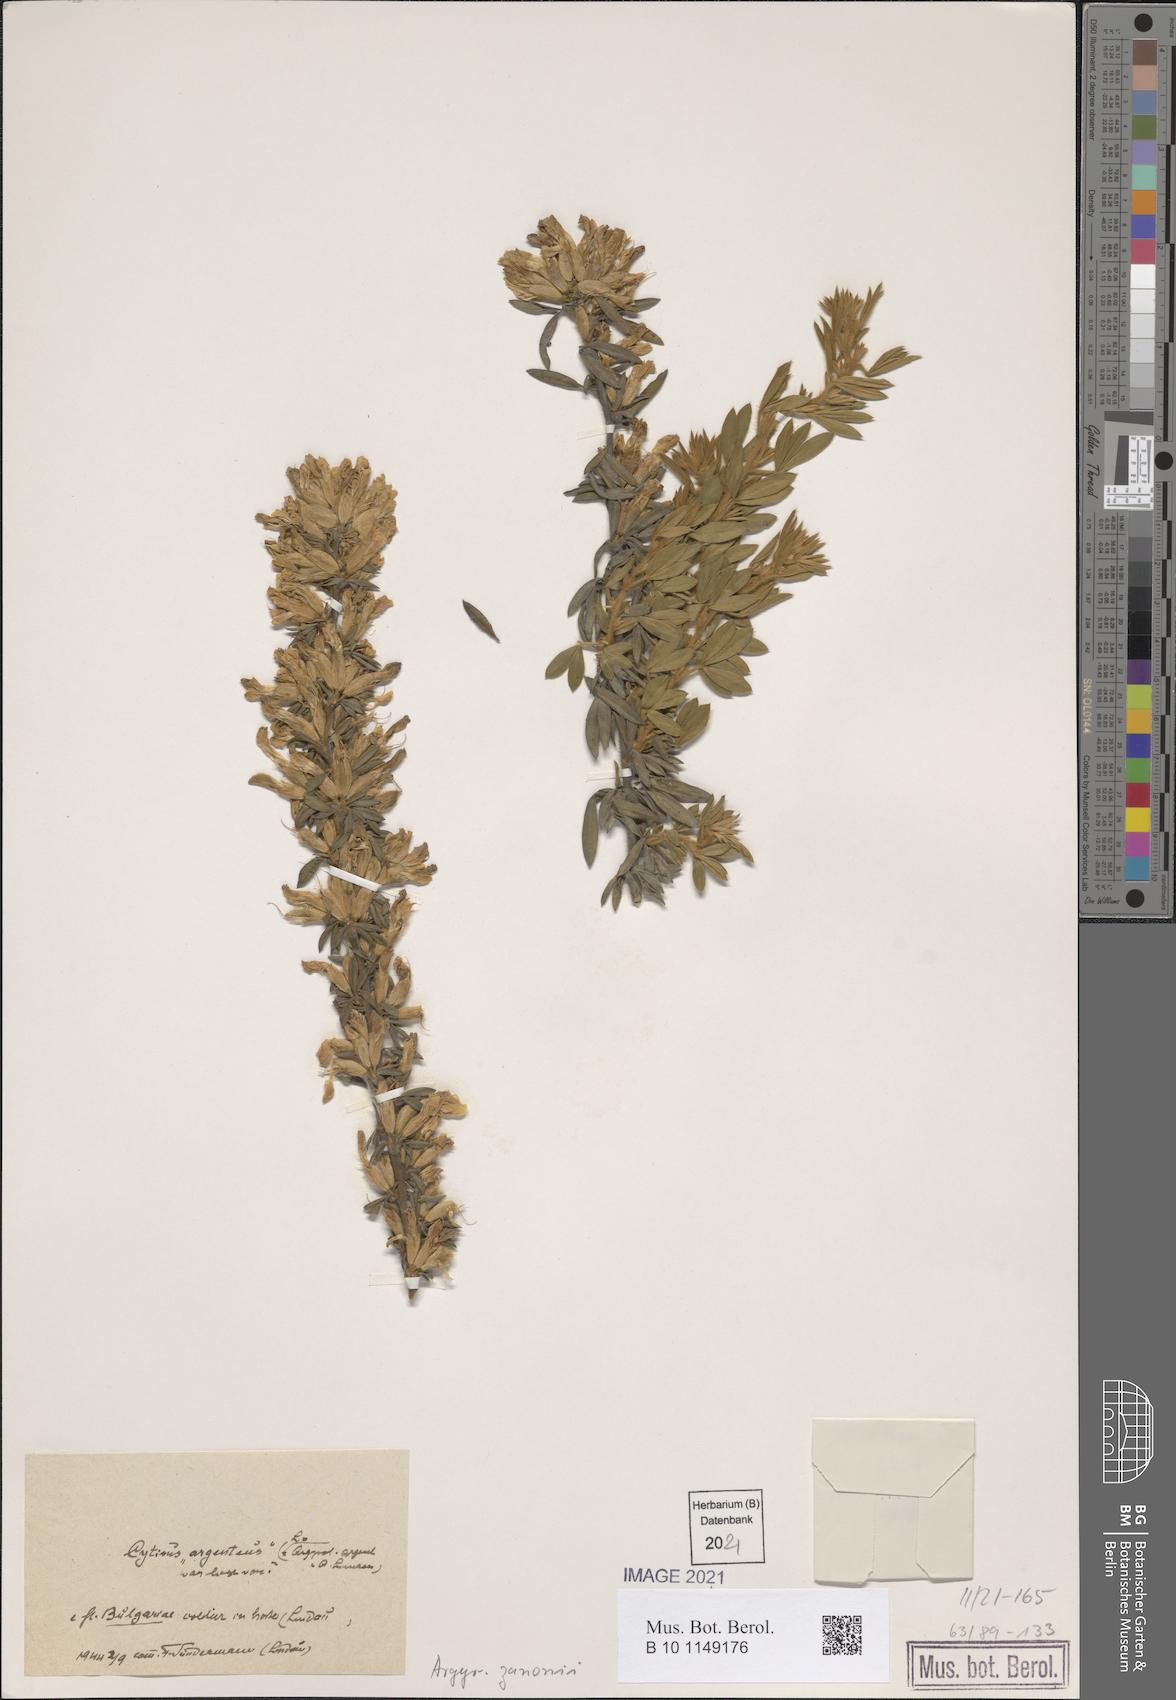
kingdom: Plantae
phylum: Tracheophyta
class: Magnoliopsida
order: Fabales
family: Fabaceae
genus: Argyrolobium
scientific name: Argyrolobium zanonii
